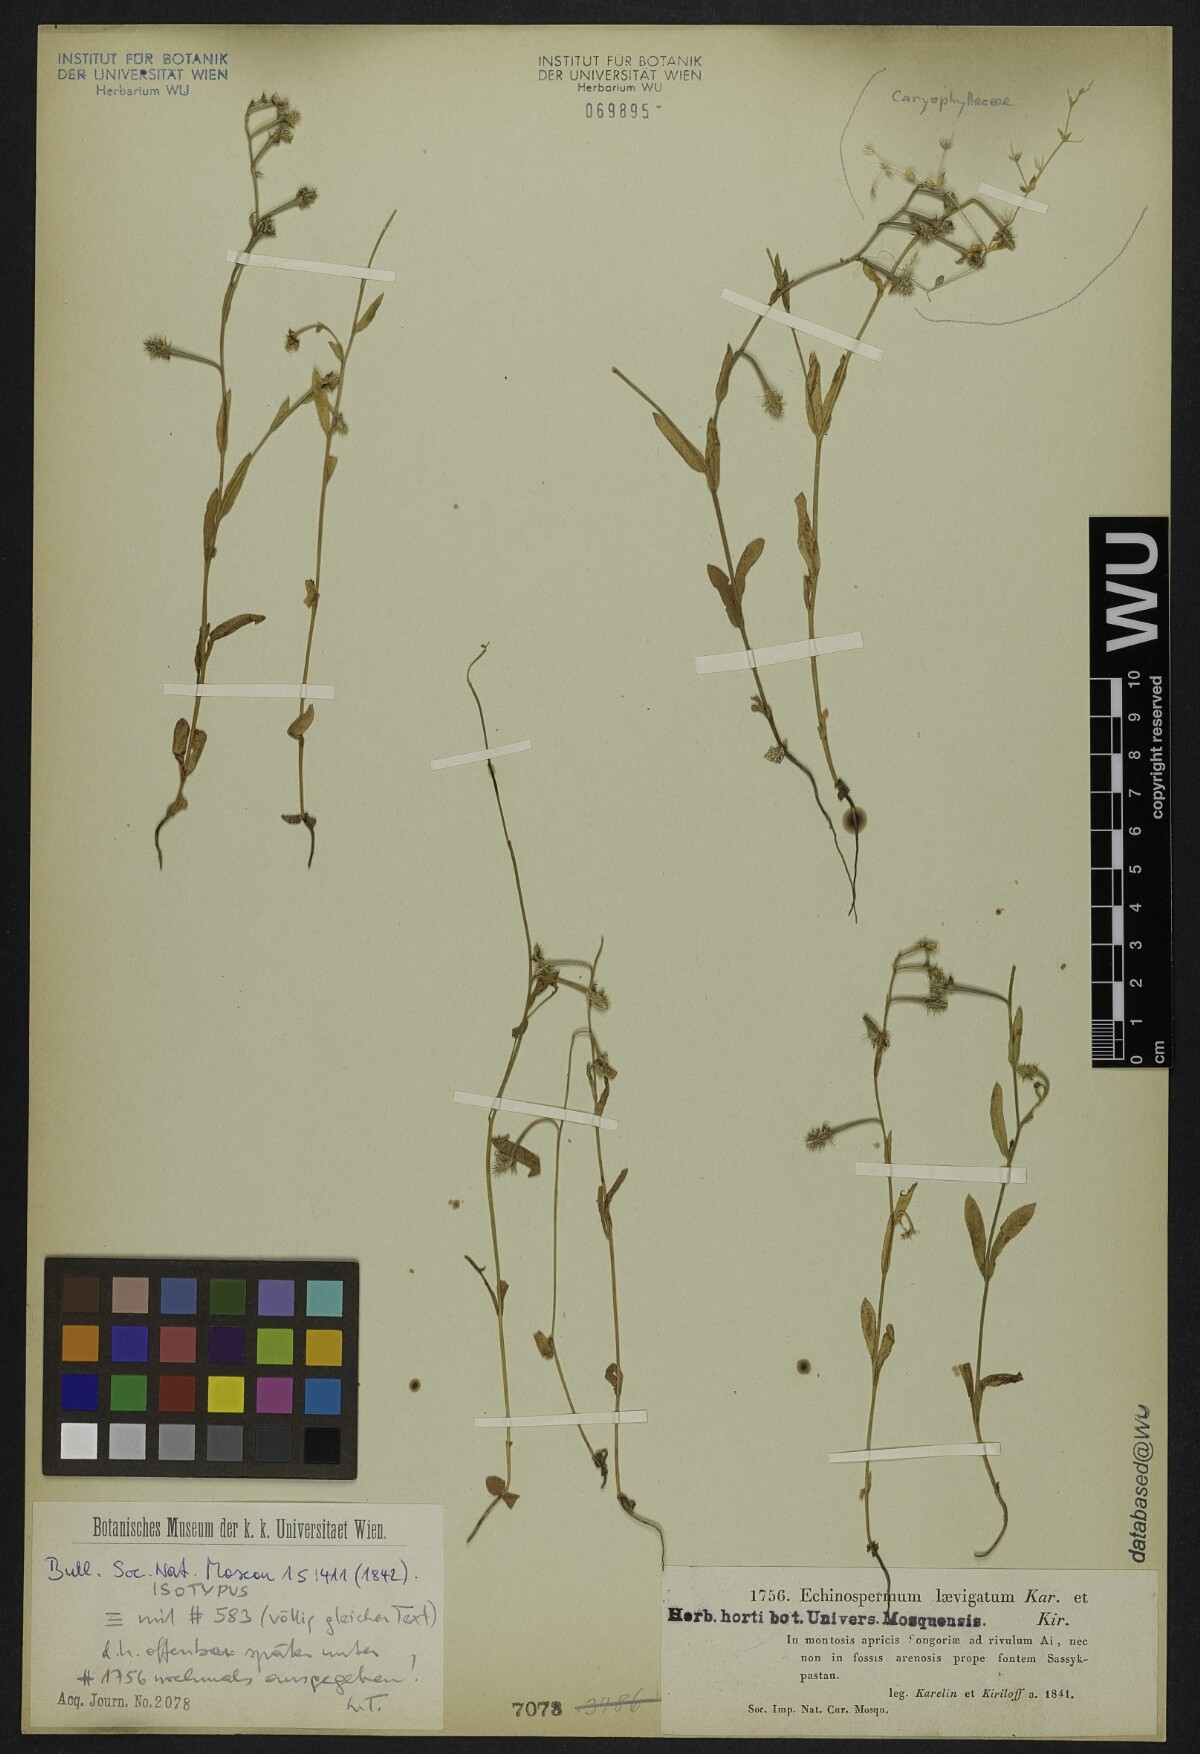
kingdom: Plantae
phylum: Tracheophyta
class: Magnoliopsida
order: Boraginales
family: Boraginaceae
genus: Heterocaryum
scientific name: Heterocaryum laevigatum
